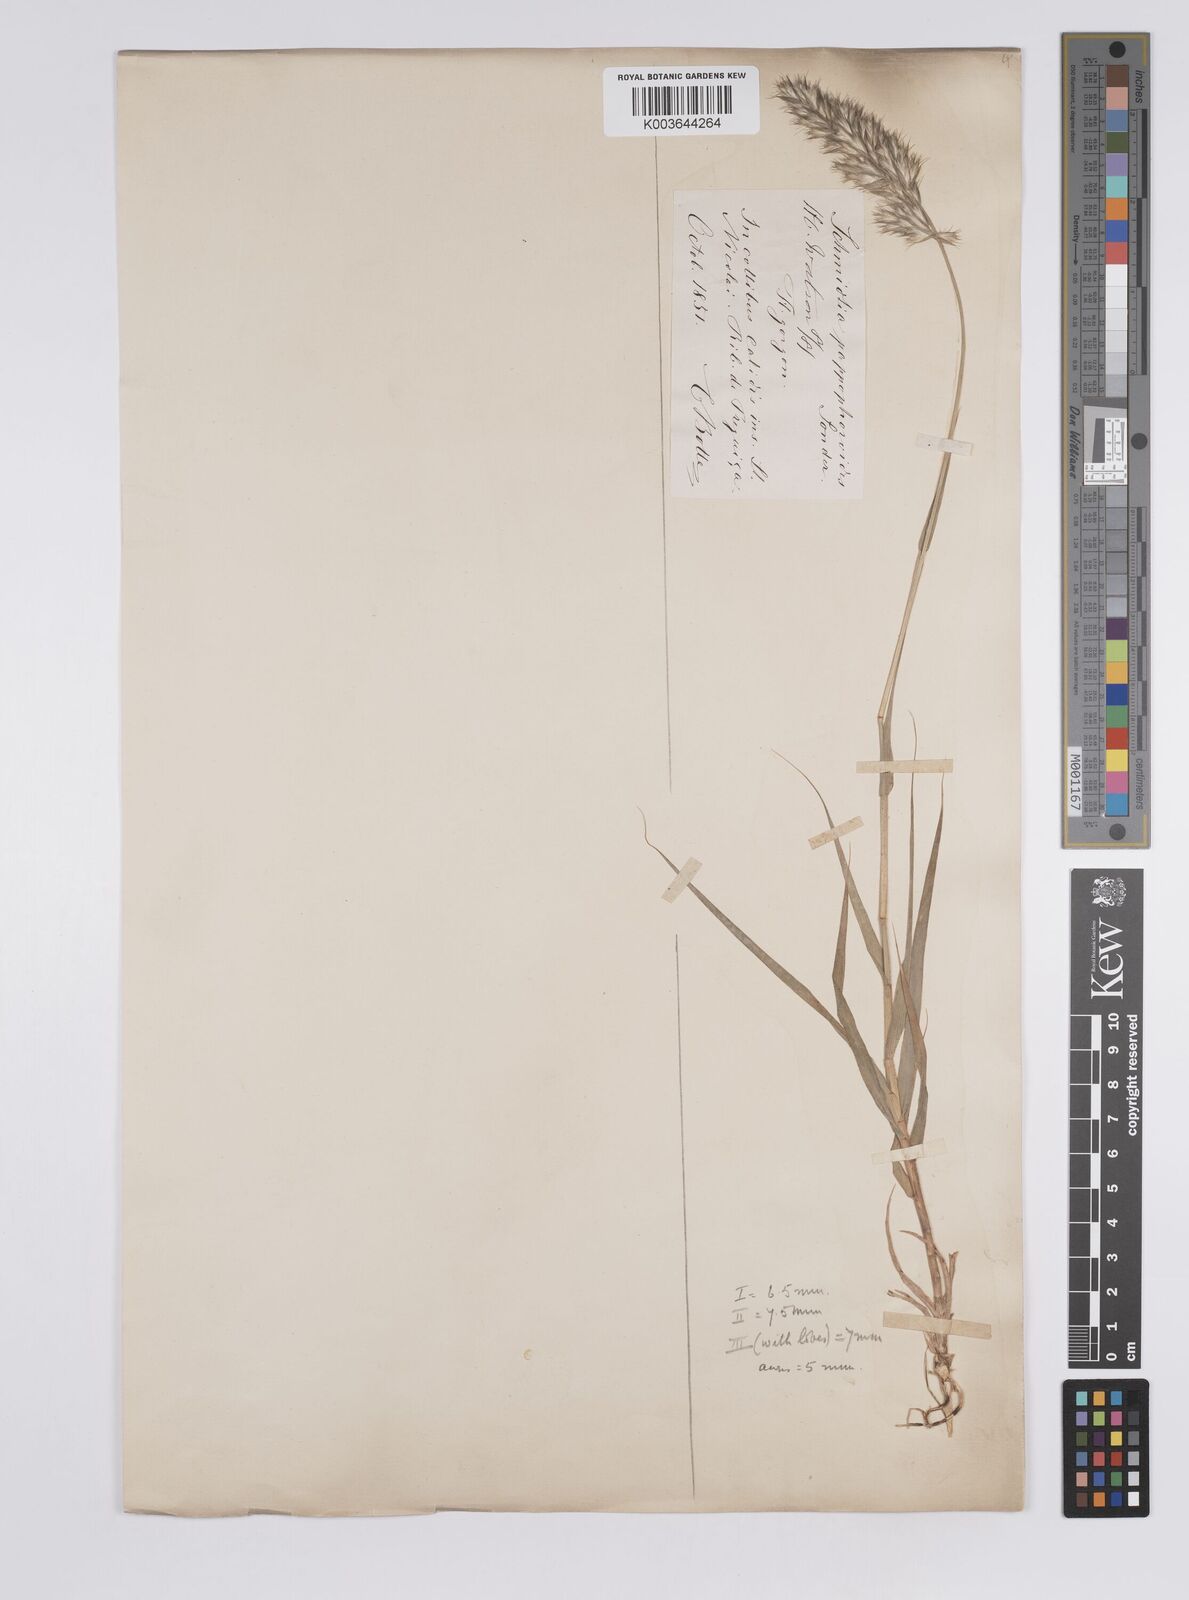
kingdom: Plantae
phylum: Tracheophyta
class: Liliopsida
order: Poales
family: Poaceae
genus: Schmidtia
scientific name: Schmidtia pappophoroides
